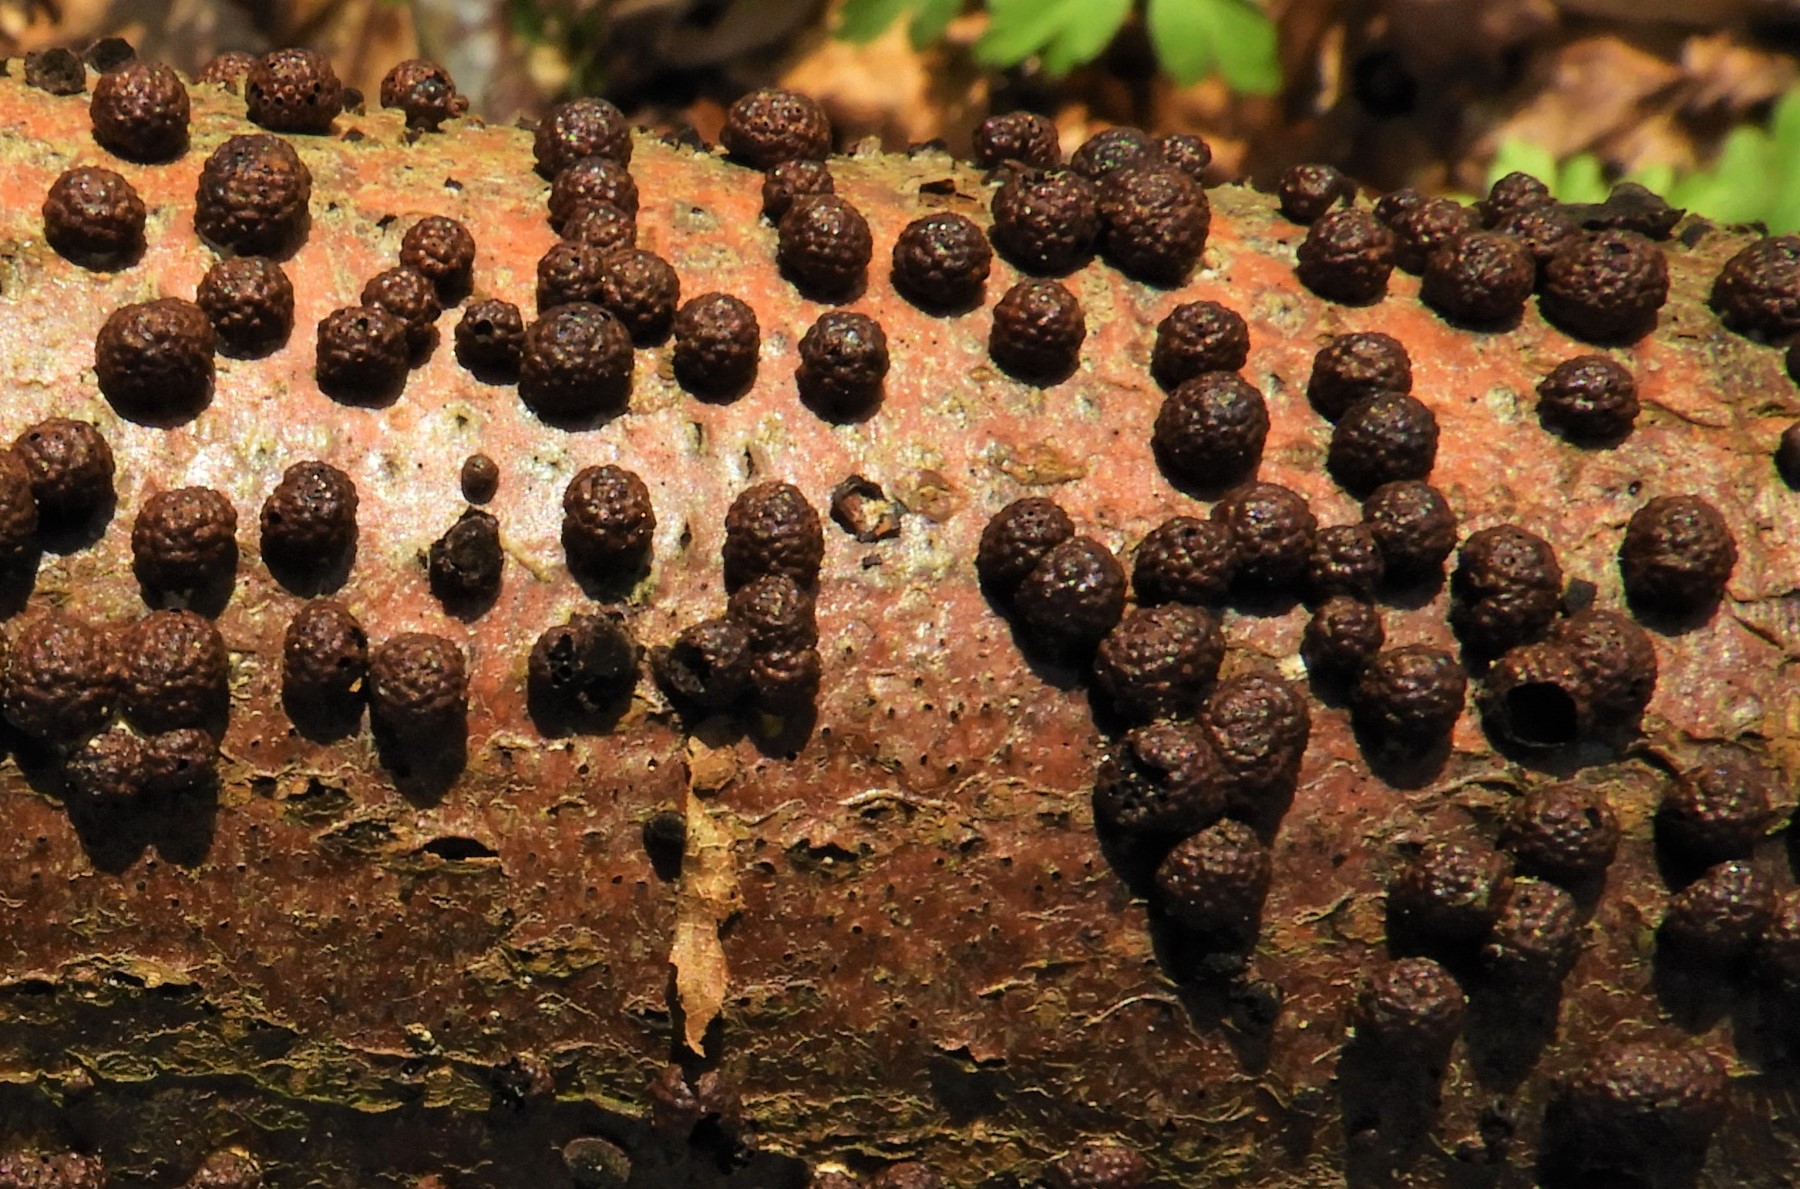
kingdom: Fungi
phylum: Ascomycota
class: Sordariomycetes
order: Xylariales
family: Hypoxylaceae
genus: Hypoxylon
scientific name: Hypoxylon fragiforme
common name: kuljordbær
